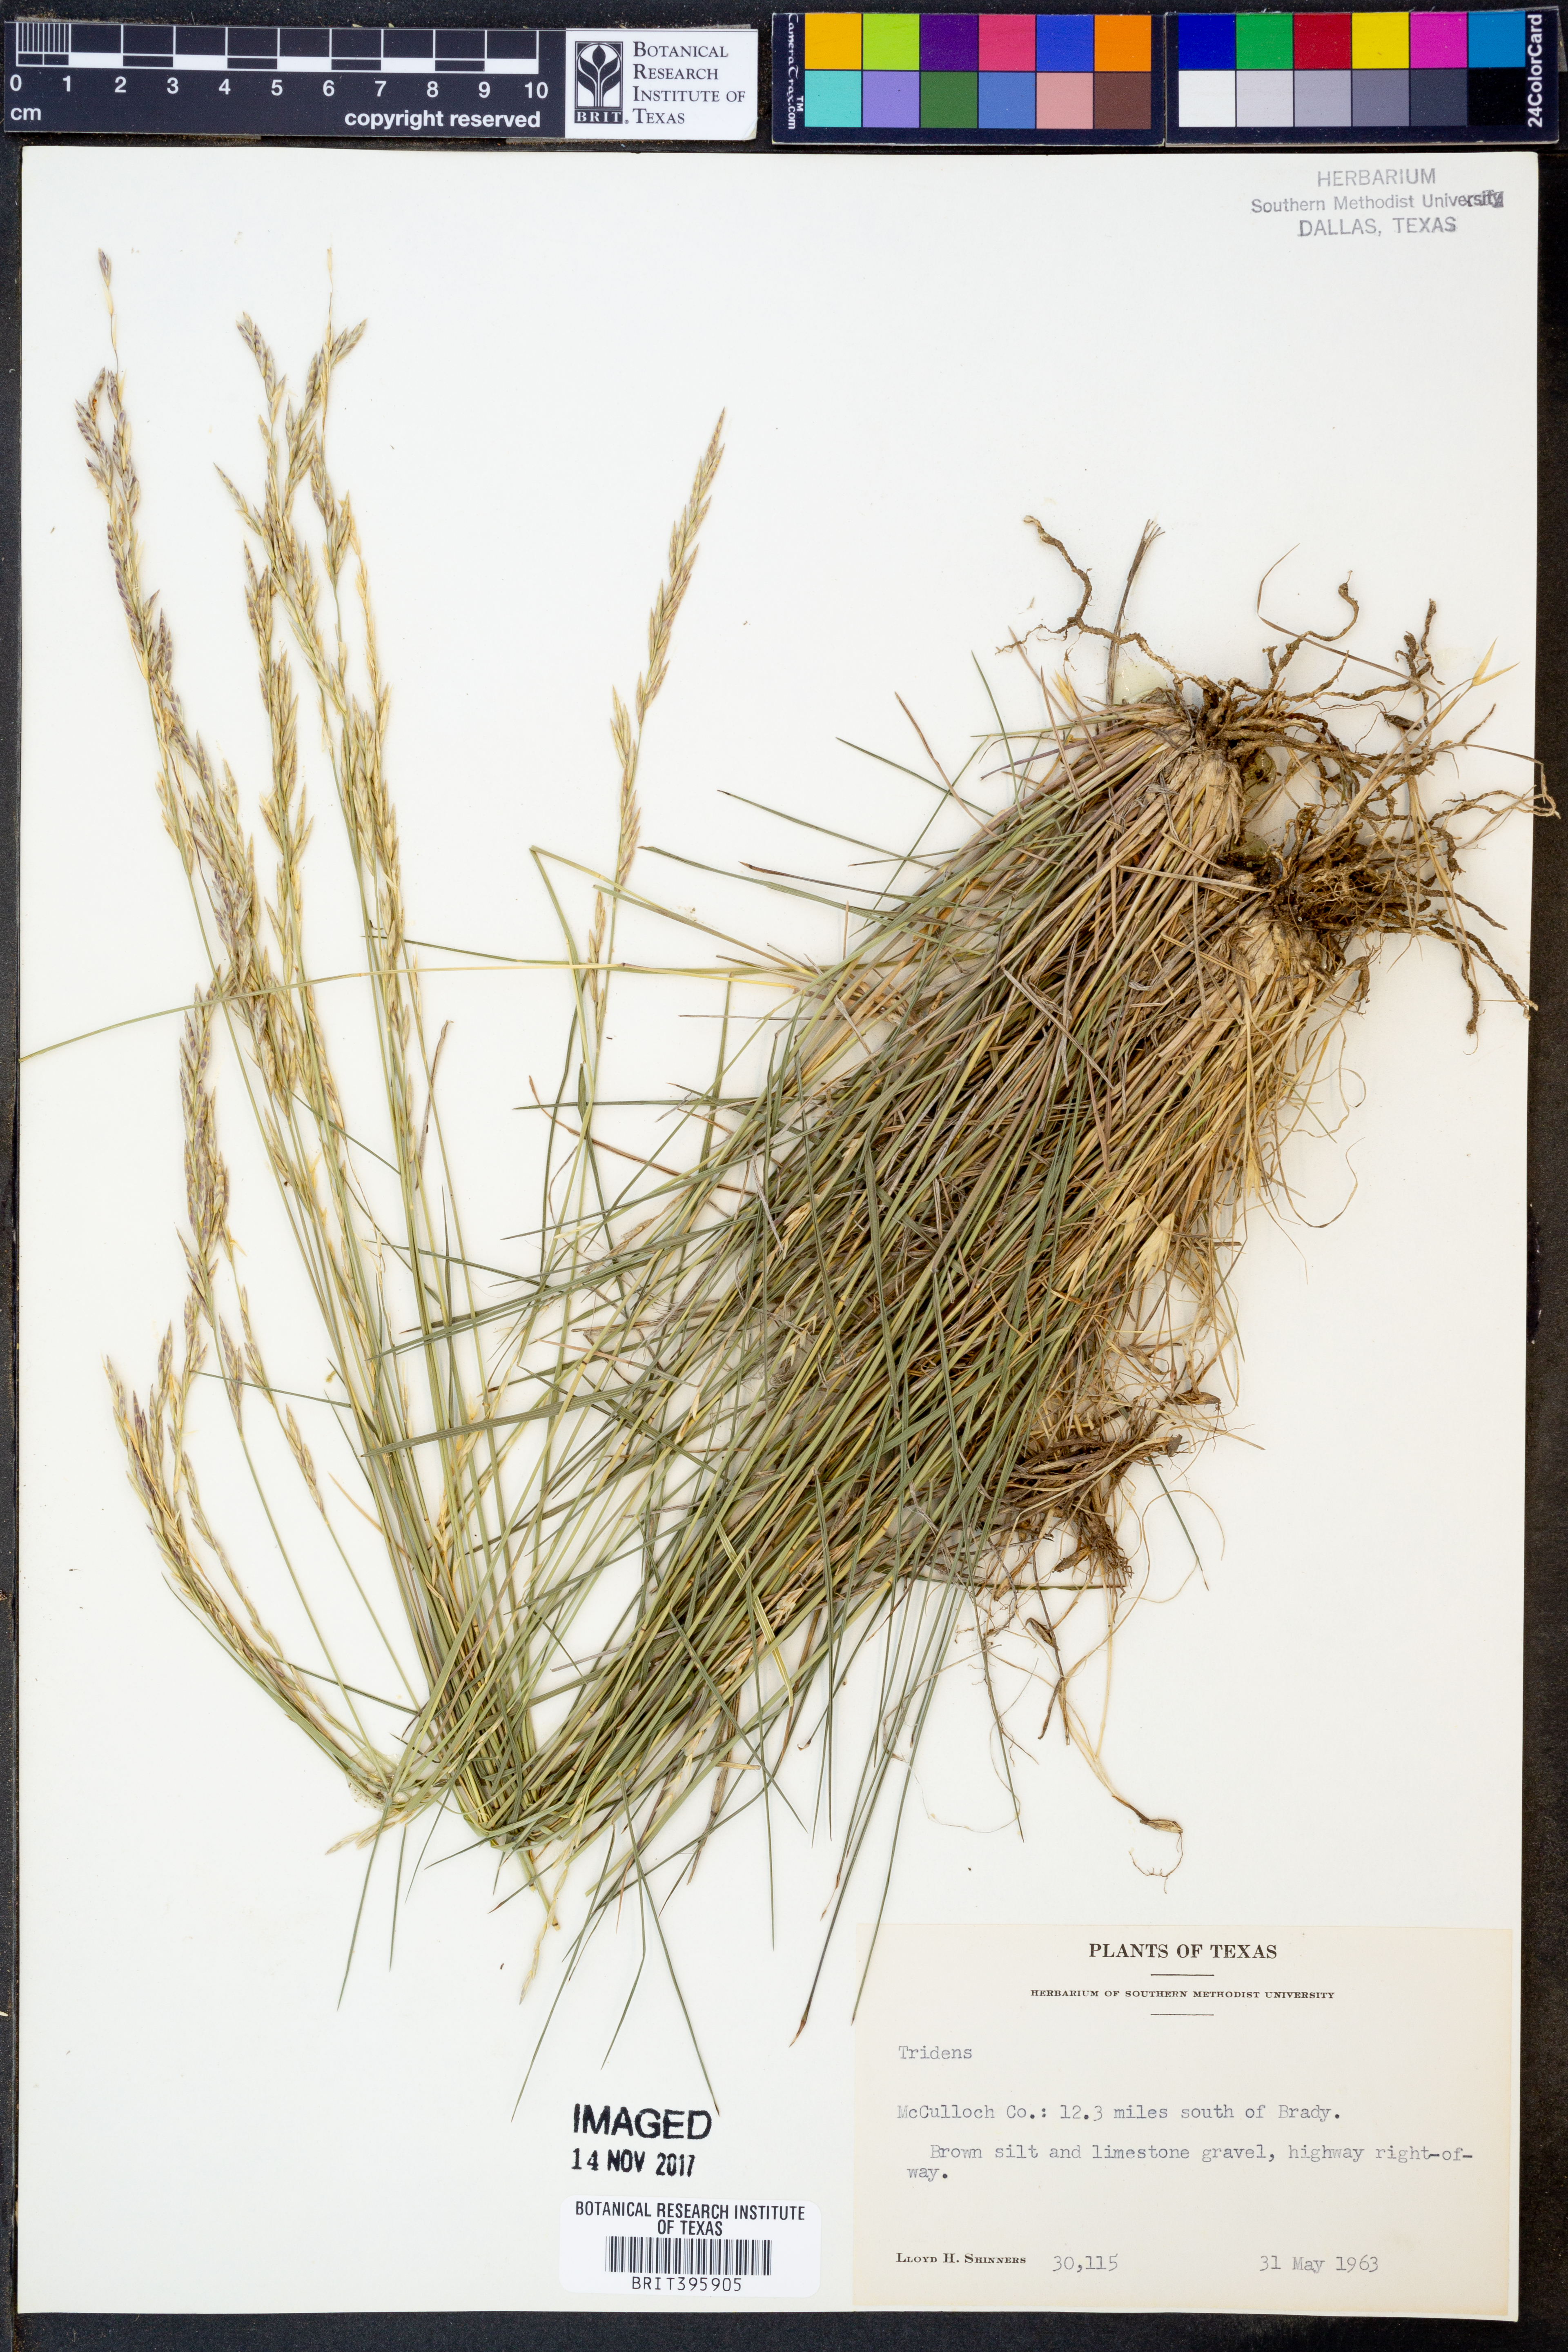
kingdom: Plantae
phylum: Tracheophyta
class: Liliopsida
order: Poales
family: Poaceae
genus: Tridens
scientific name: Tridens
